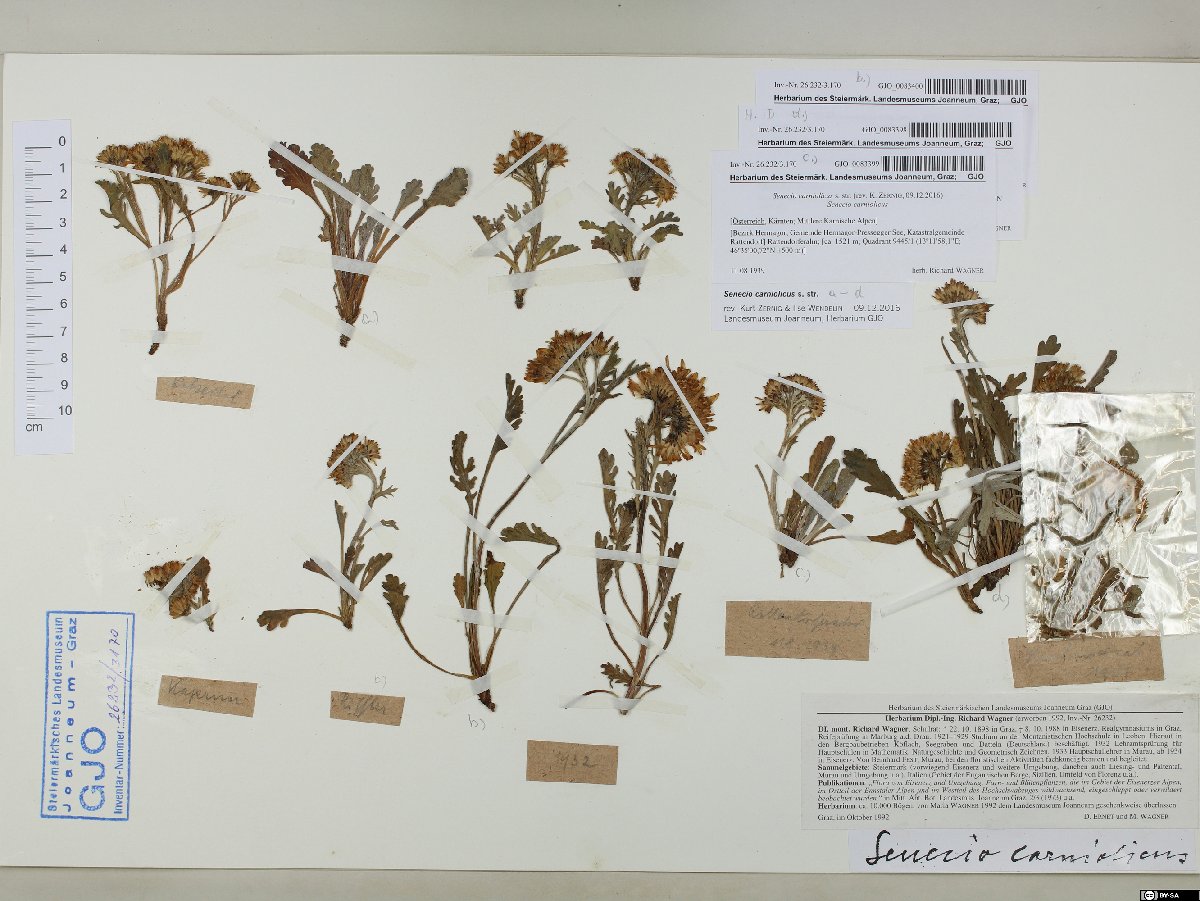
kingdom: Plantae
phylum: Tracheophyta
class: Magnoliopsida
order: Asterales
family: Asteraceae
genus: Jacobaea
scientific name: Jacobaea carniolica
